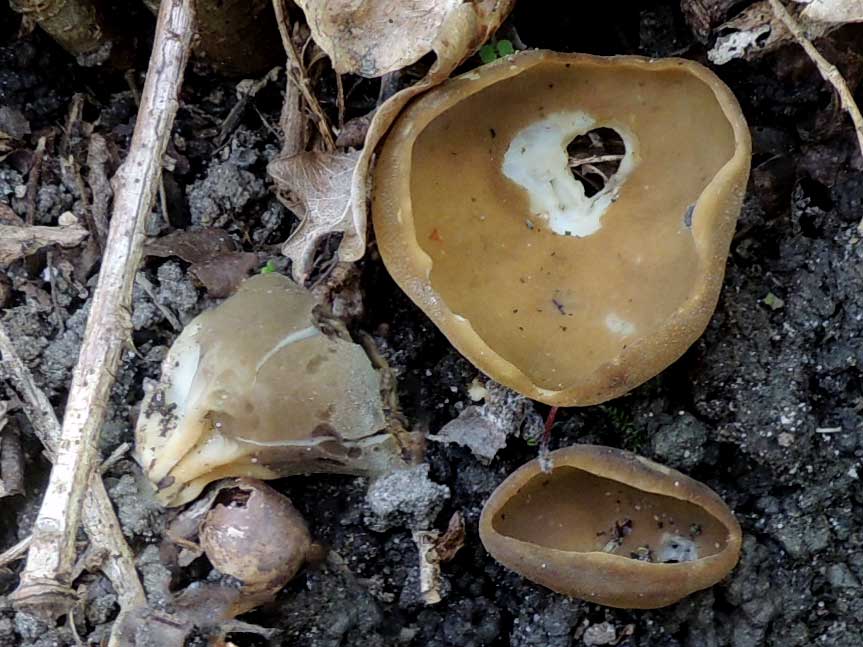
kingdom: Fungi
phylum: Ascomycota
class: Pezizomycetes
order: Pezizales
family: Helvellaceae
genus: Helvella
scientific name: Helvella acetabulum
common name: pokal-foldhat
